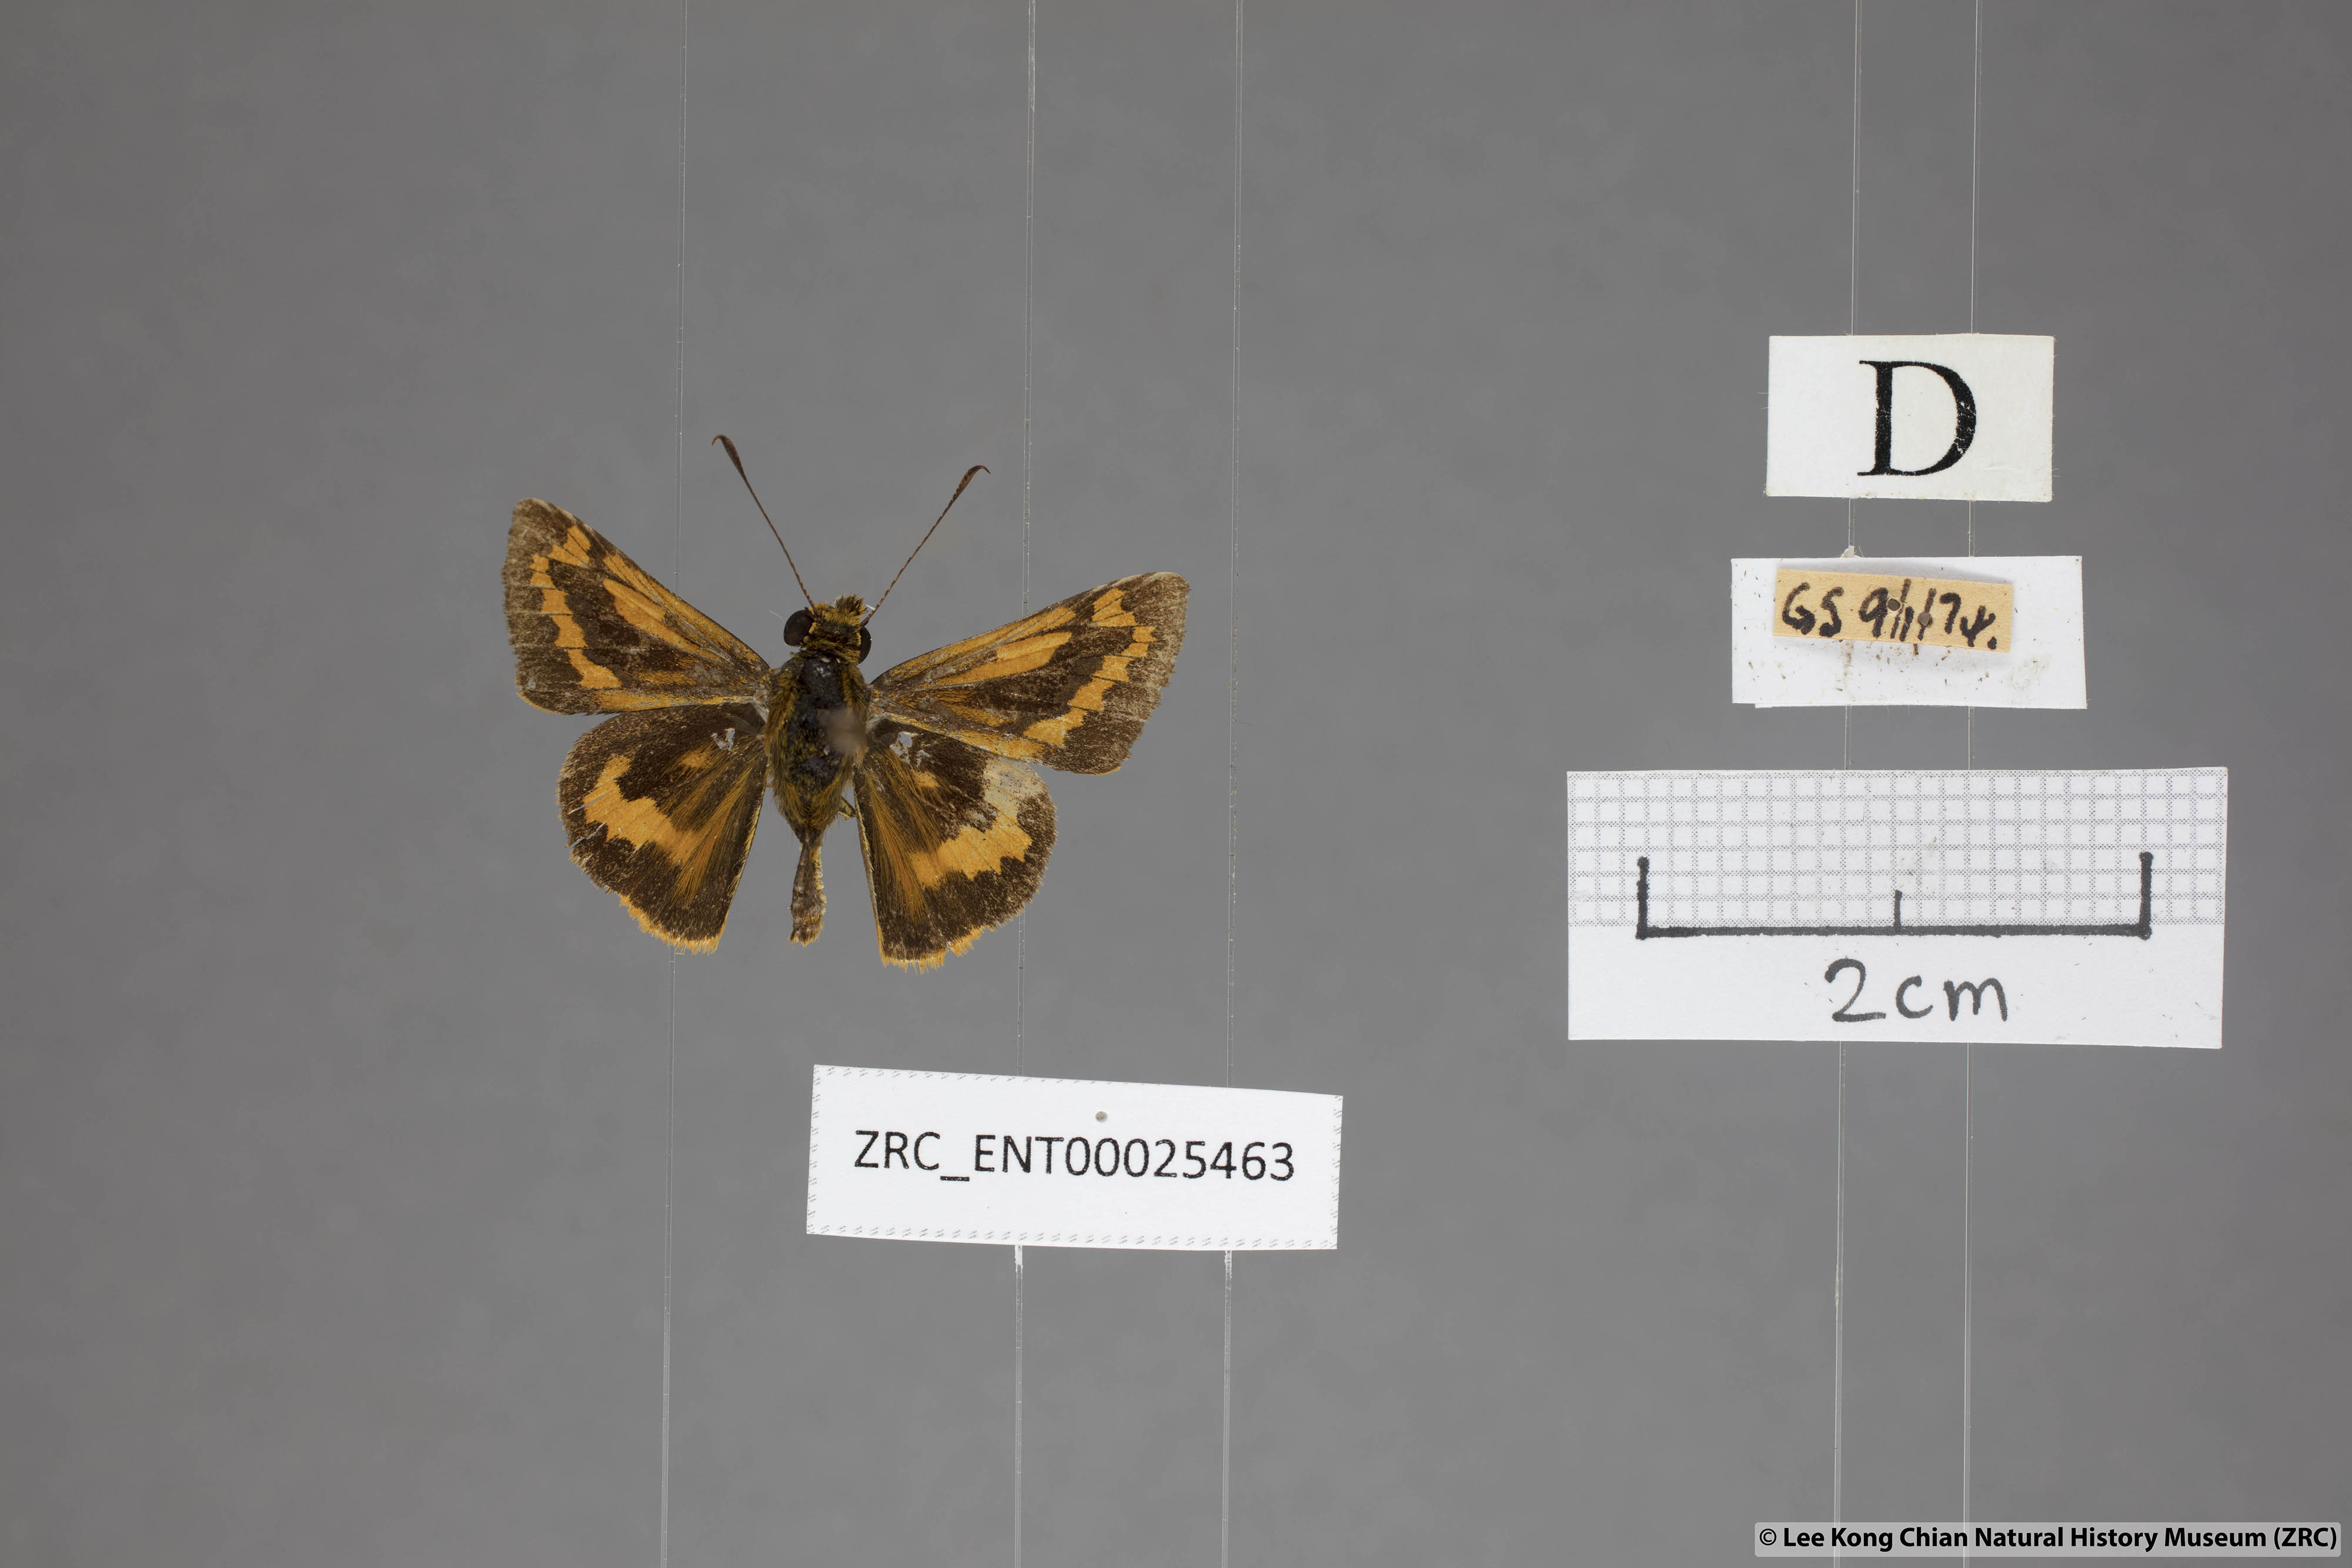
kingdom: Animalia
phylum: Arthropoda
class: Insecta
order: Lepidoptera
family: Hesperiidae
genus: Potanthus
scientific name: Potanthus rectifasciata
